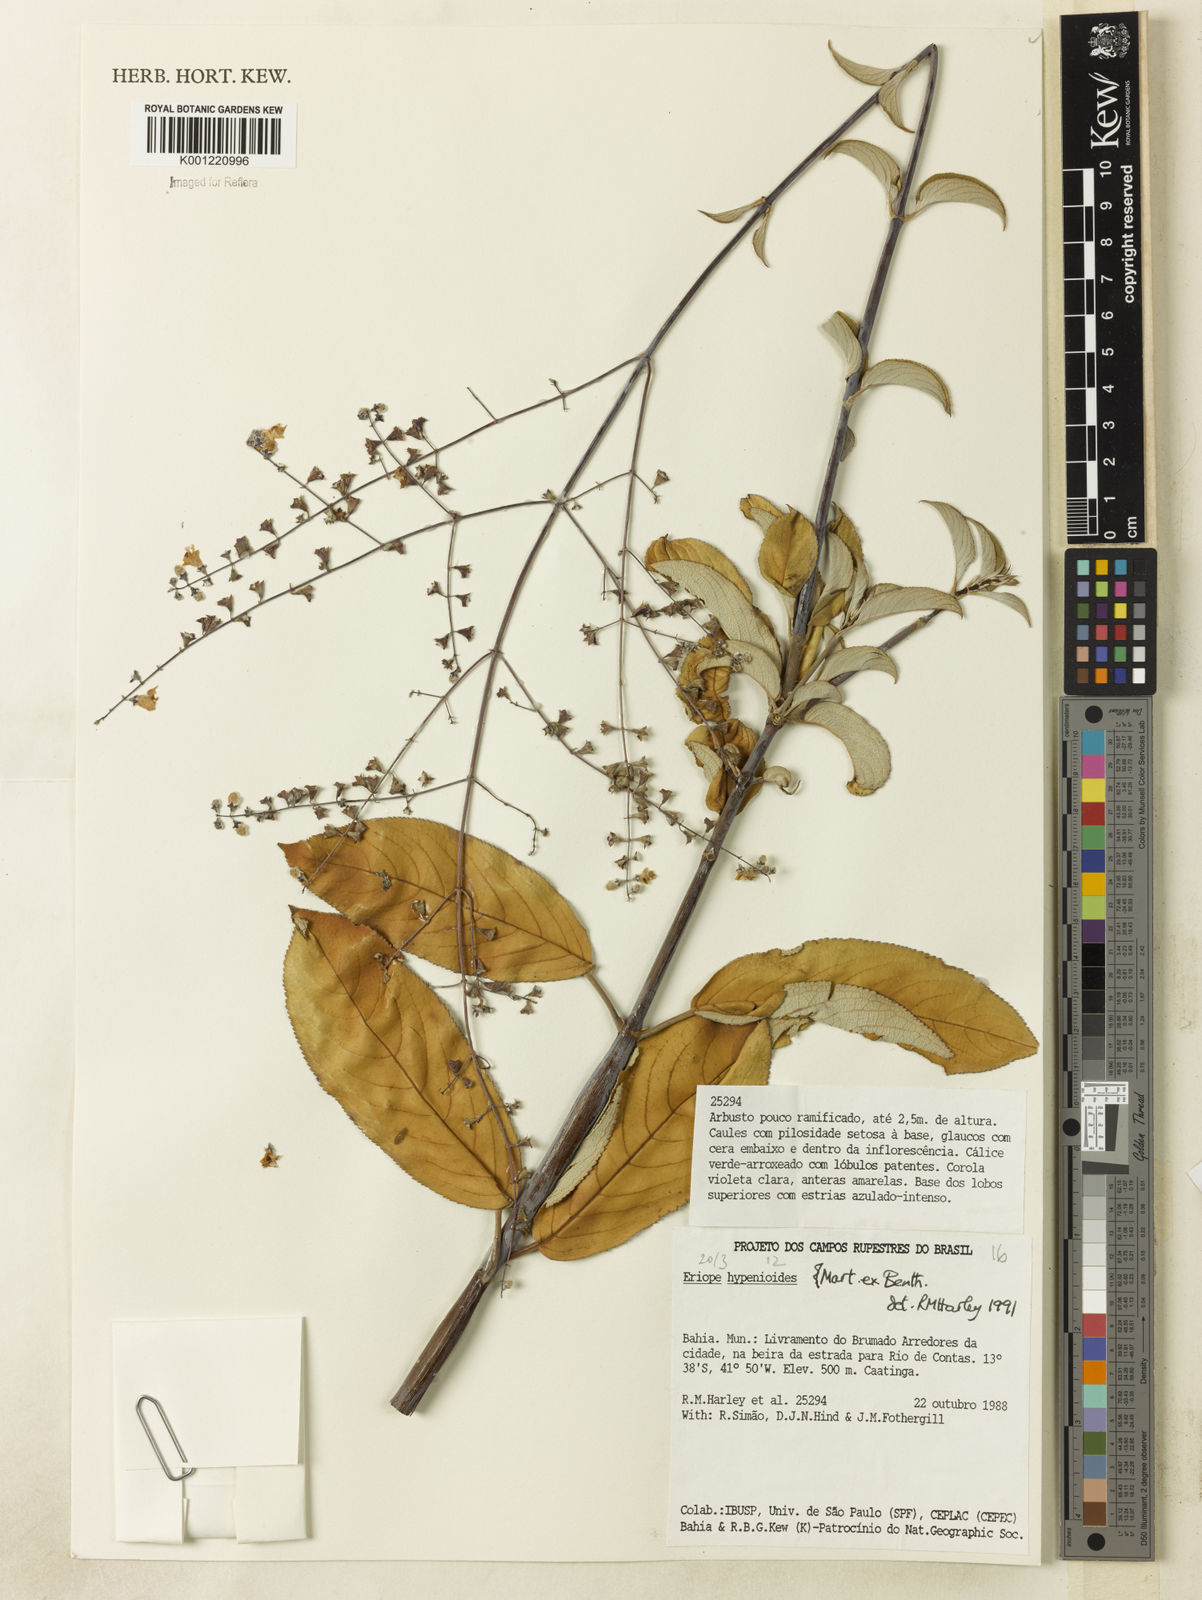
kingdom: Plantae
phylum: Tracheophyta
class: Magnoliopsida
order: Lamiales
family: Lamiaceae
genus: Eriope
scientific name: Eriope hypenioides
